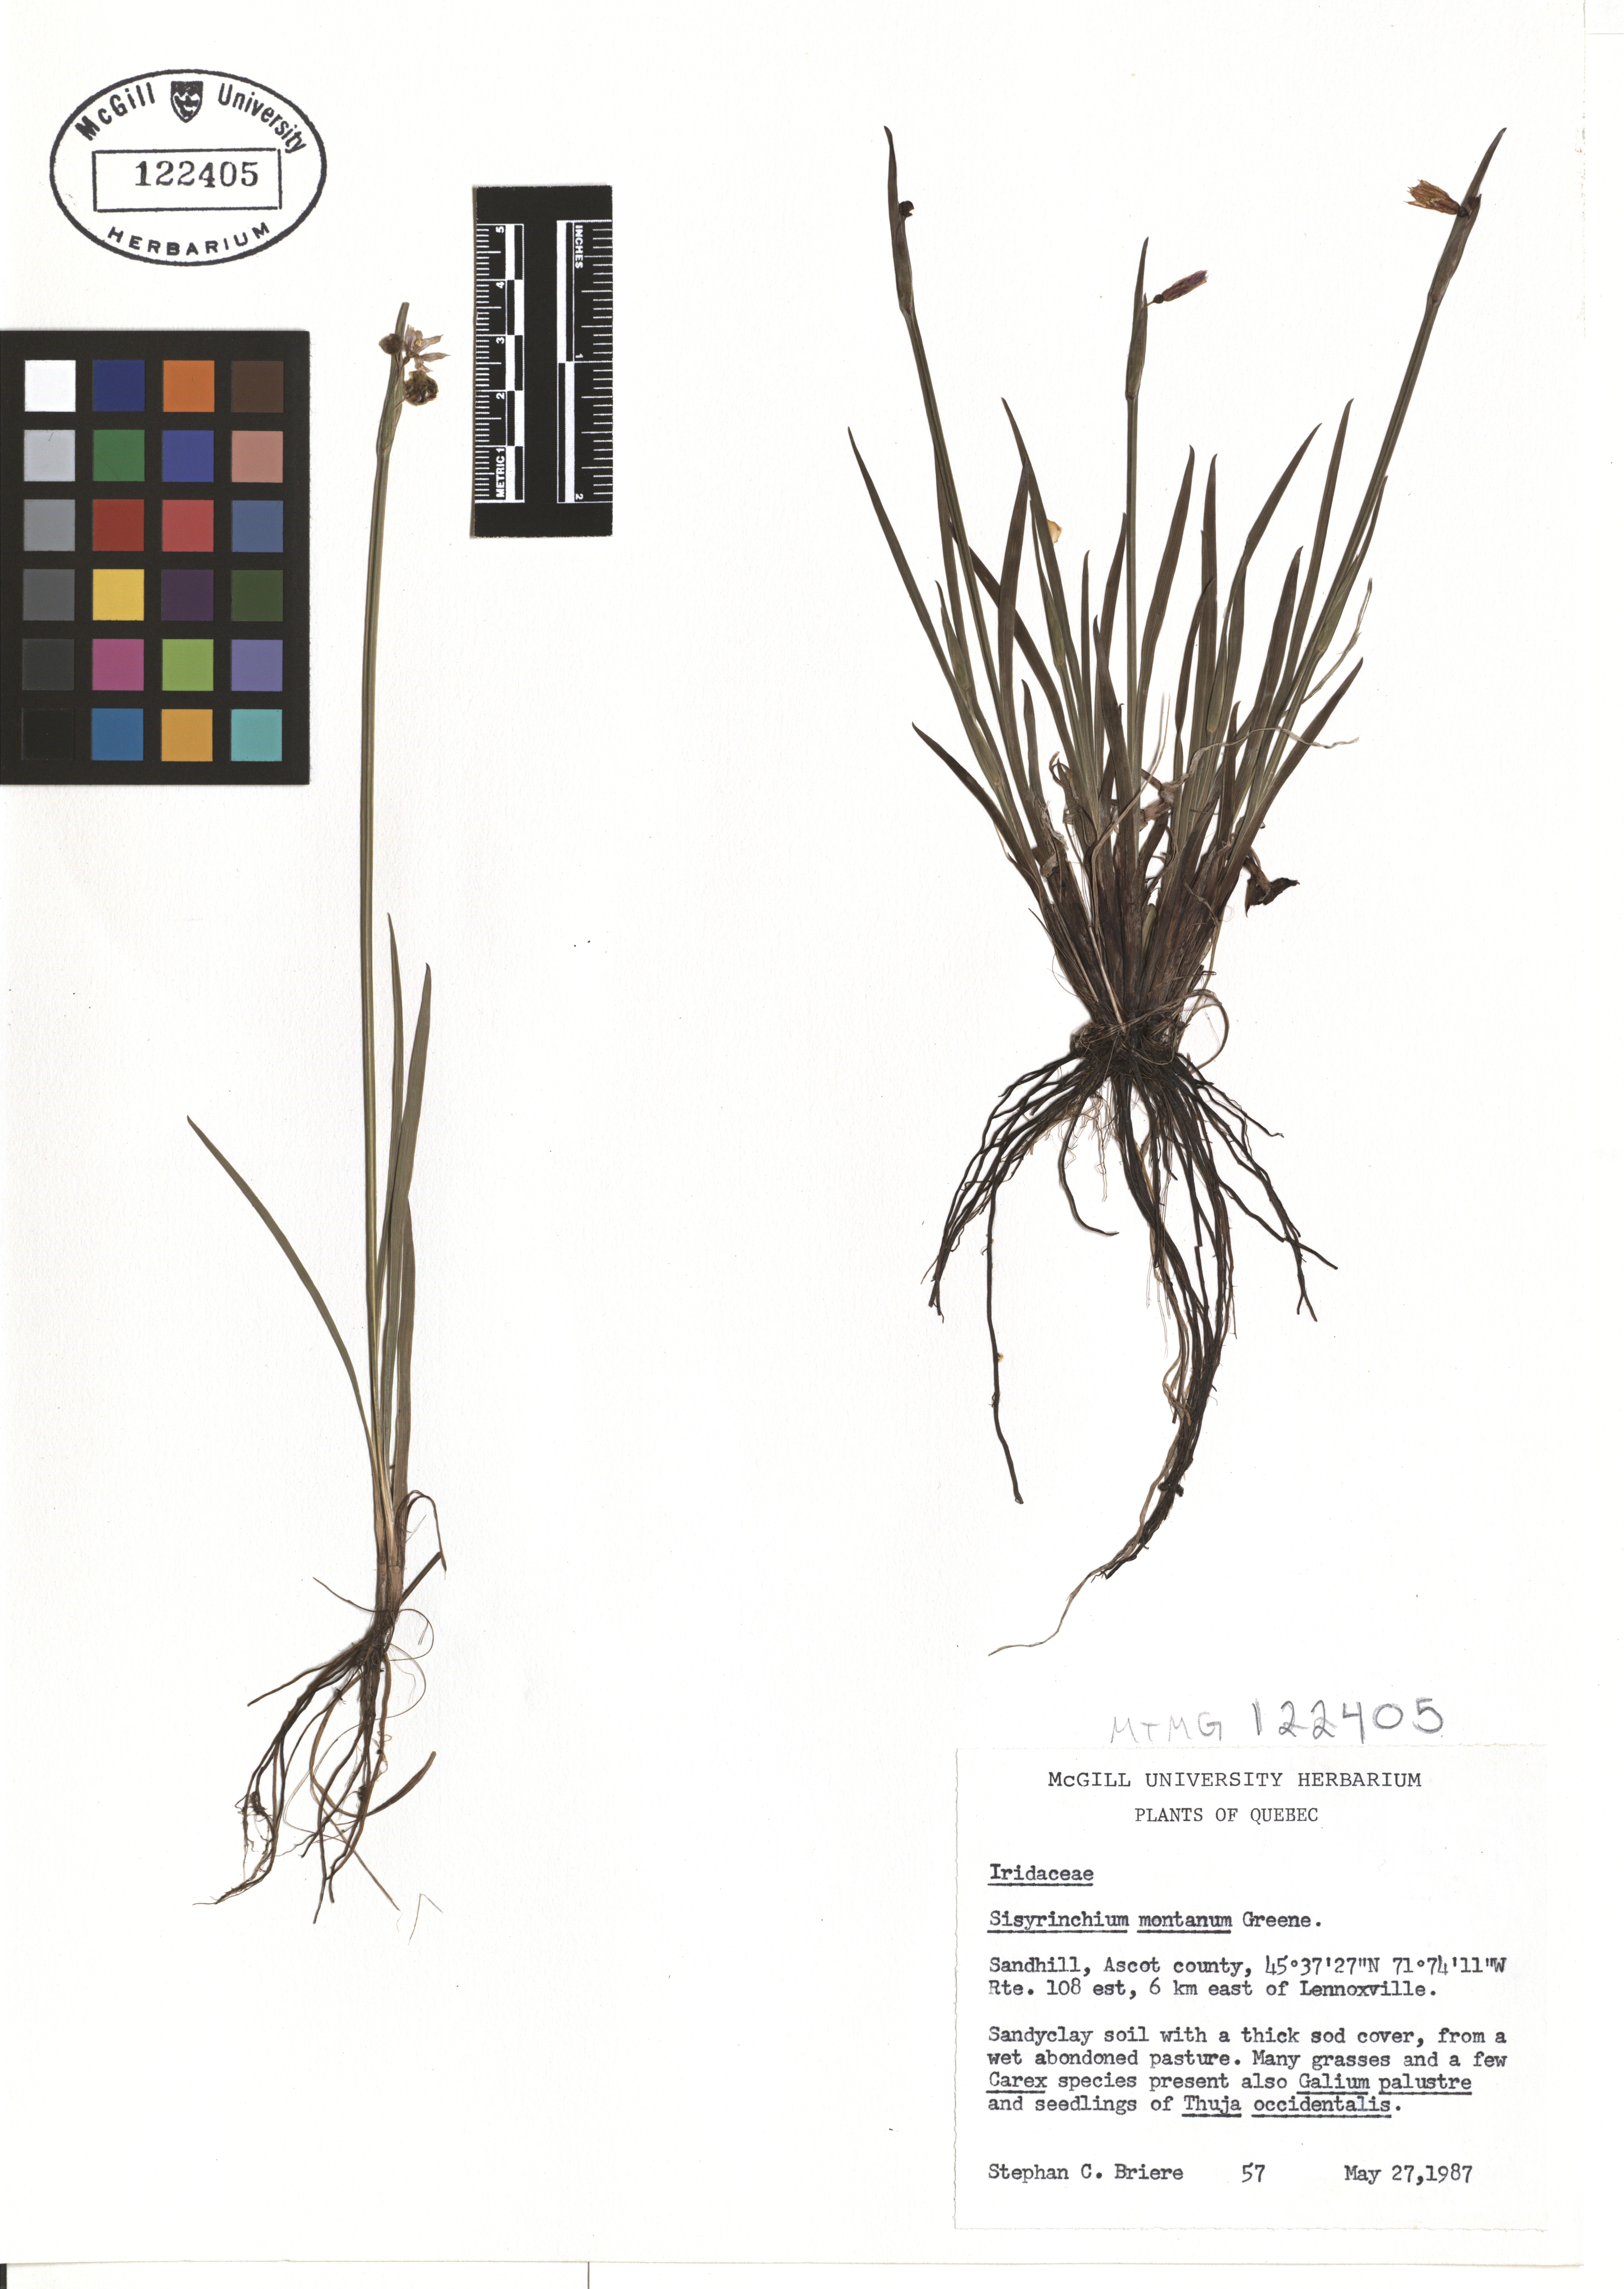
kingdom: Plantae
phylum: Tracheophyta
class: Liliopsida
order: Asparagales
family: Iridaceae
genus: Sisyrinchium
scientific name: Sisyrinchium montanum
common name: American blue-eyed-grass
